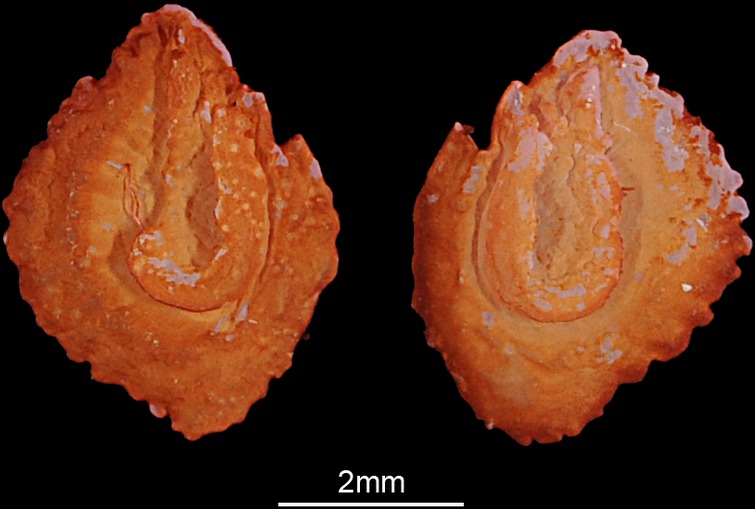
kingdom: Animalia
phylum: Chordata
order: Cypriniformes
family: Cyprinidae
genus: Tinca
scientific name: Tinca tinca
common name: Tench
